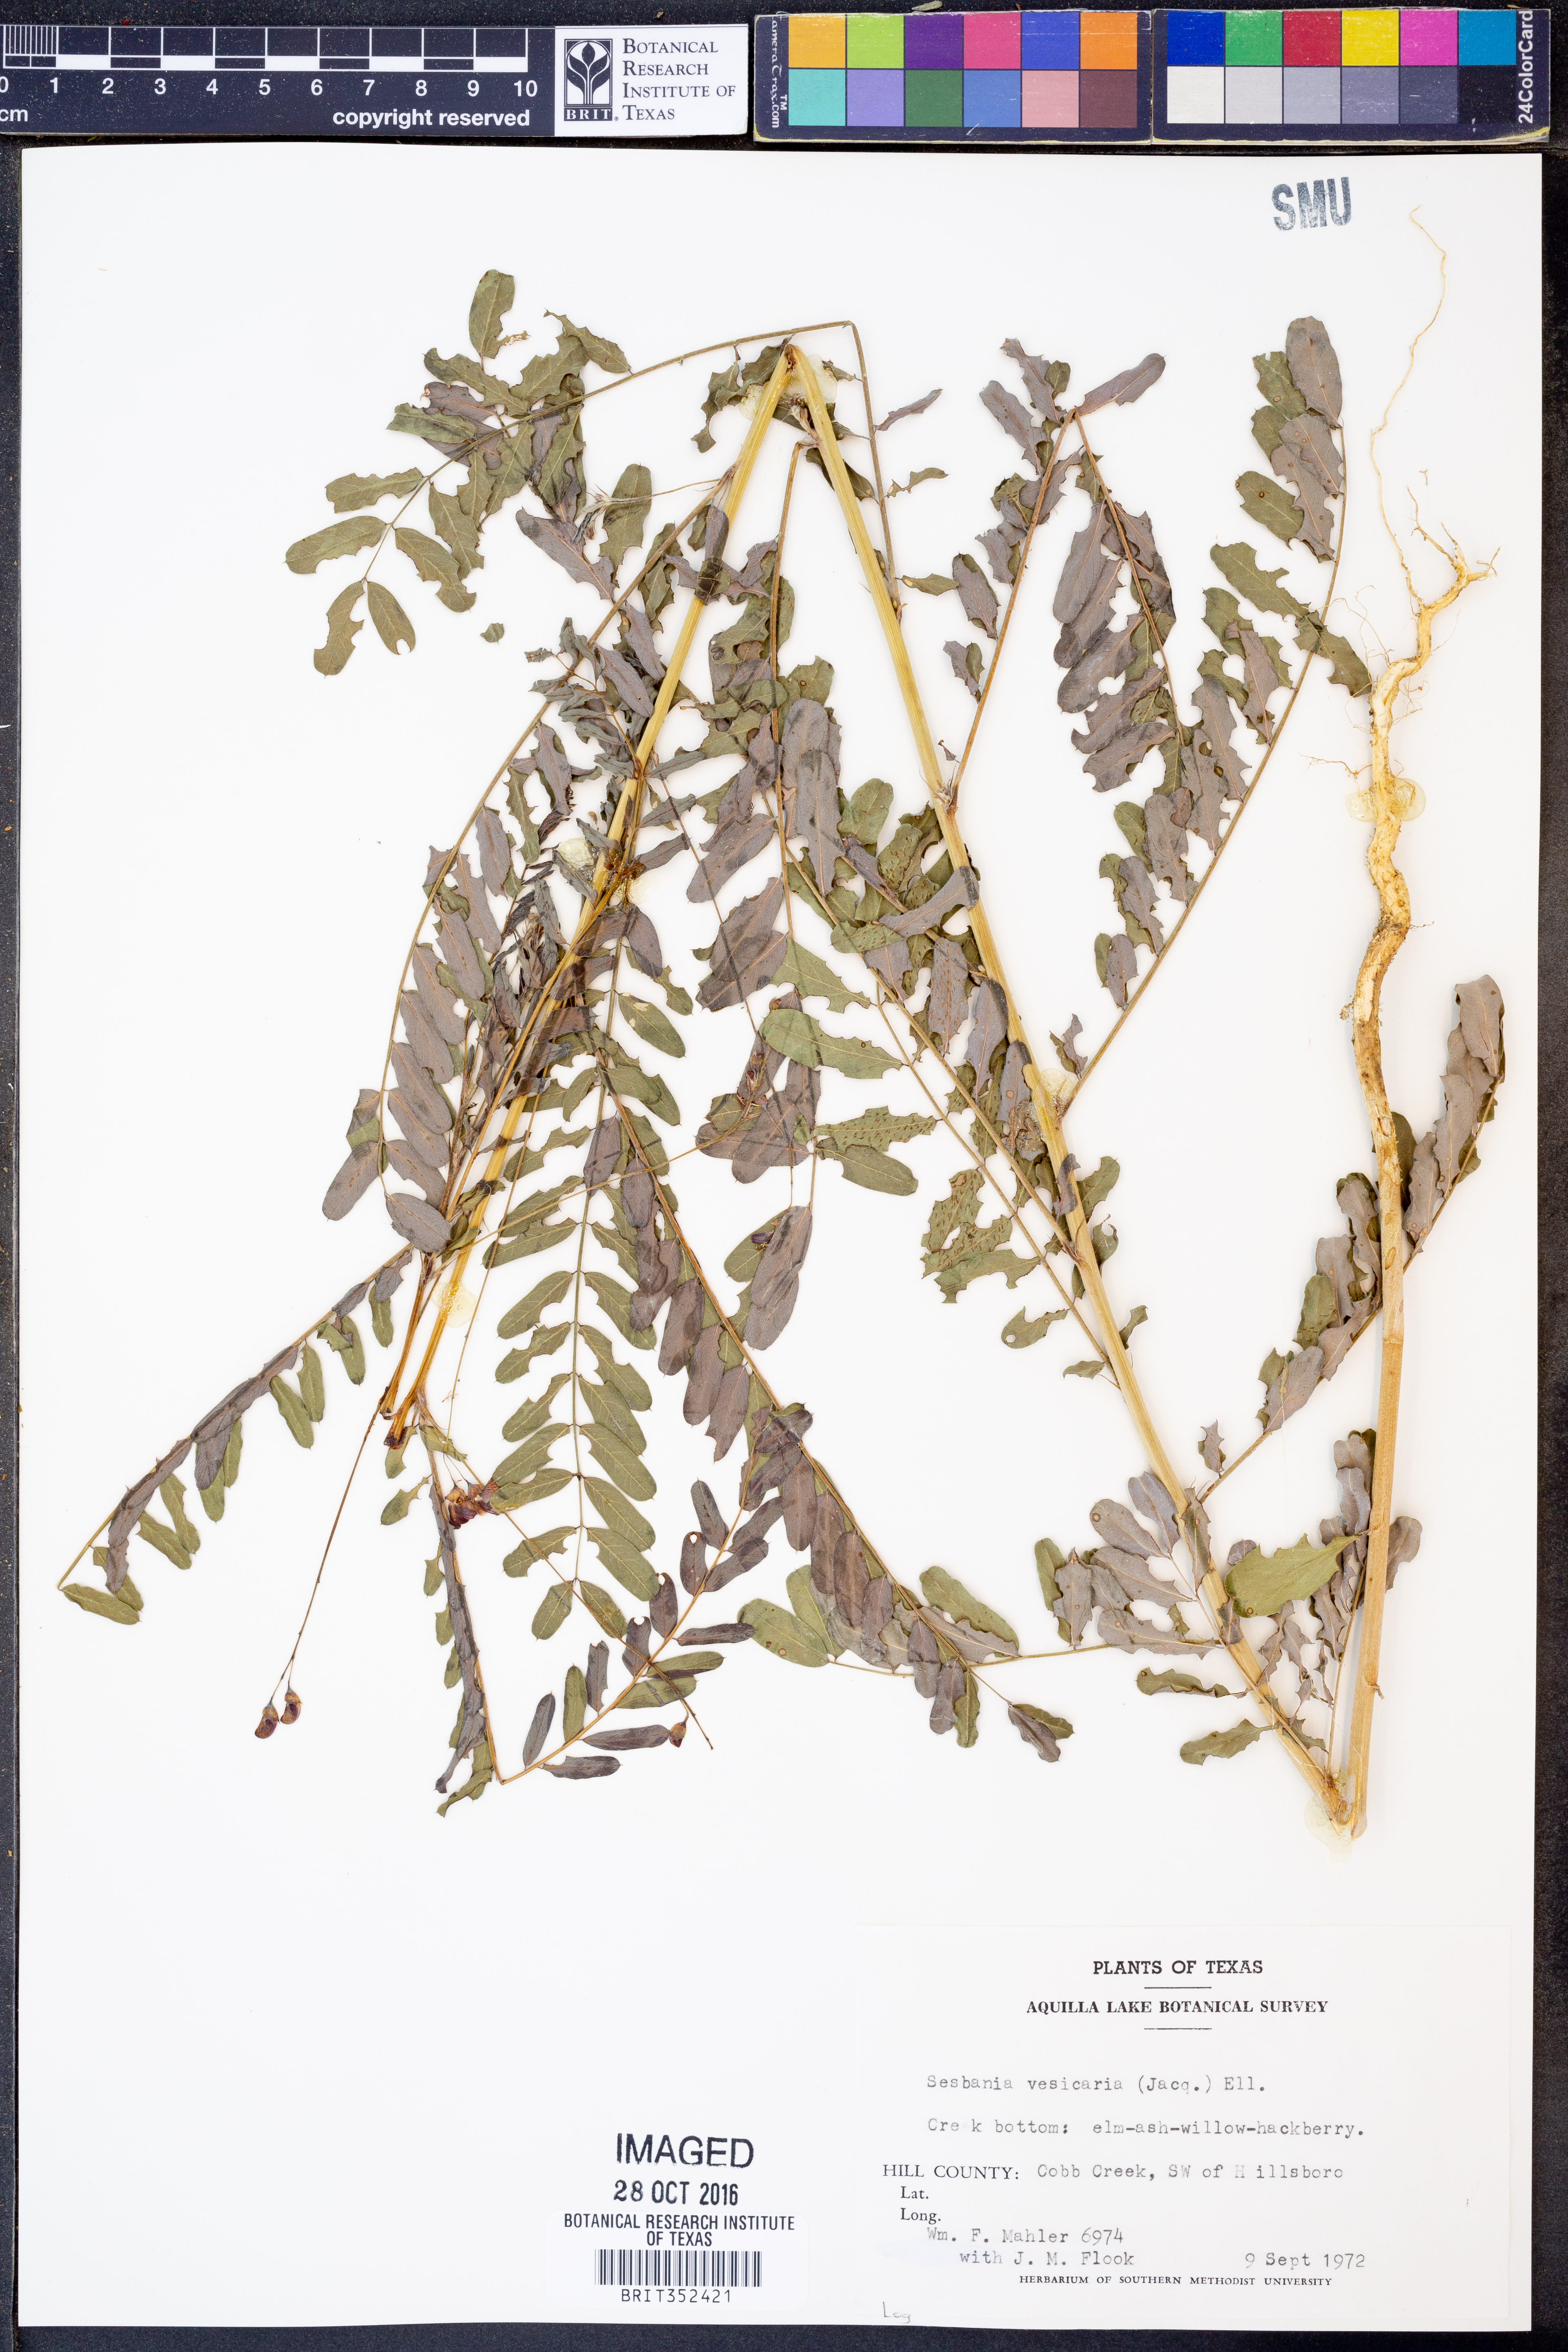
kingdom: Plantae
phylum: Tracheophyta
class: Magnoliopsida
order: Fabales
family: Fabaceae
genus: Sesbania
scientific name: Sesbania vesicaria
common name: Bagpod
